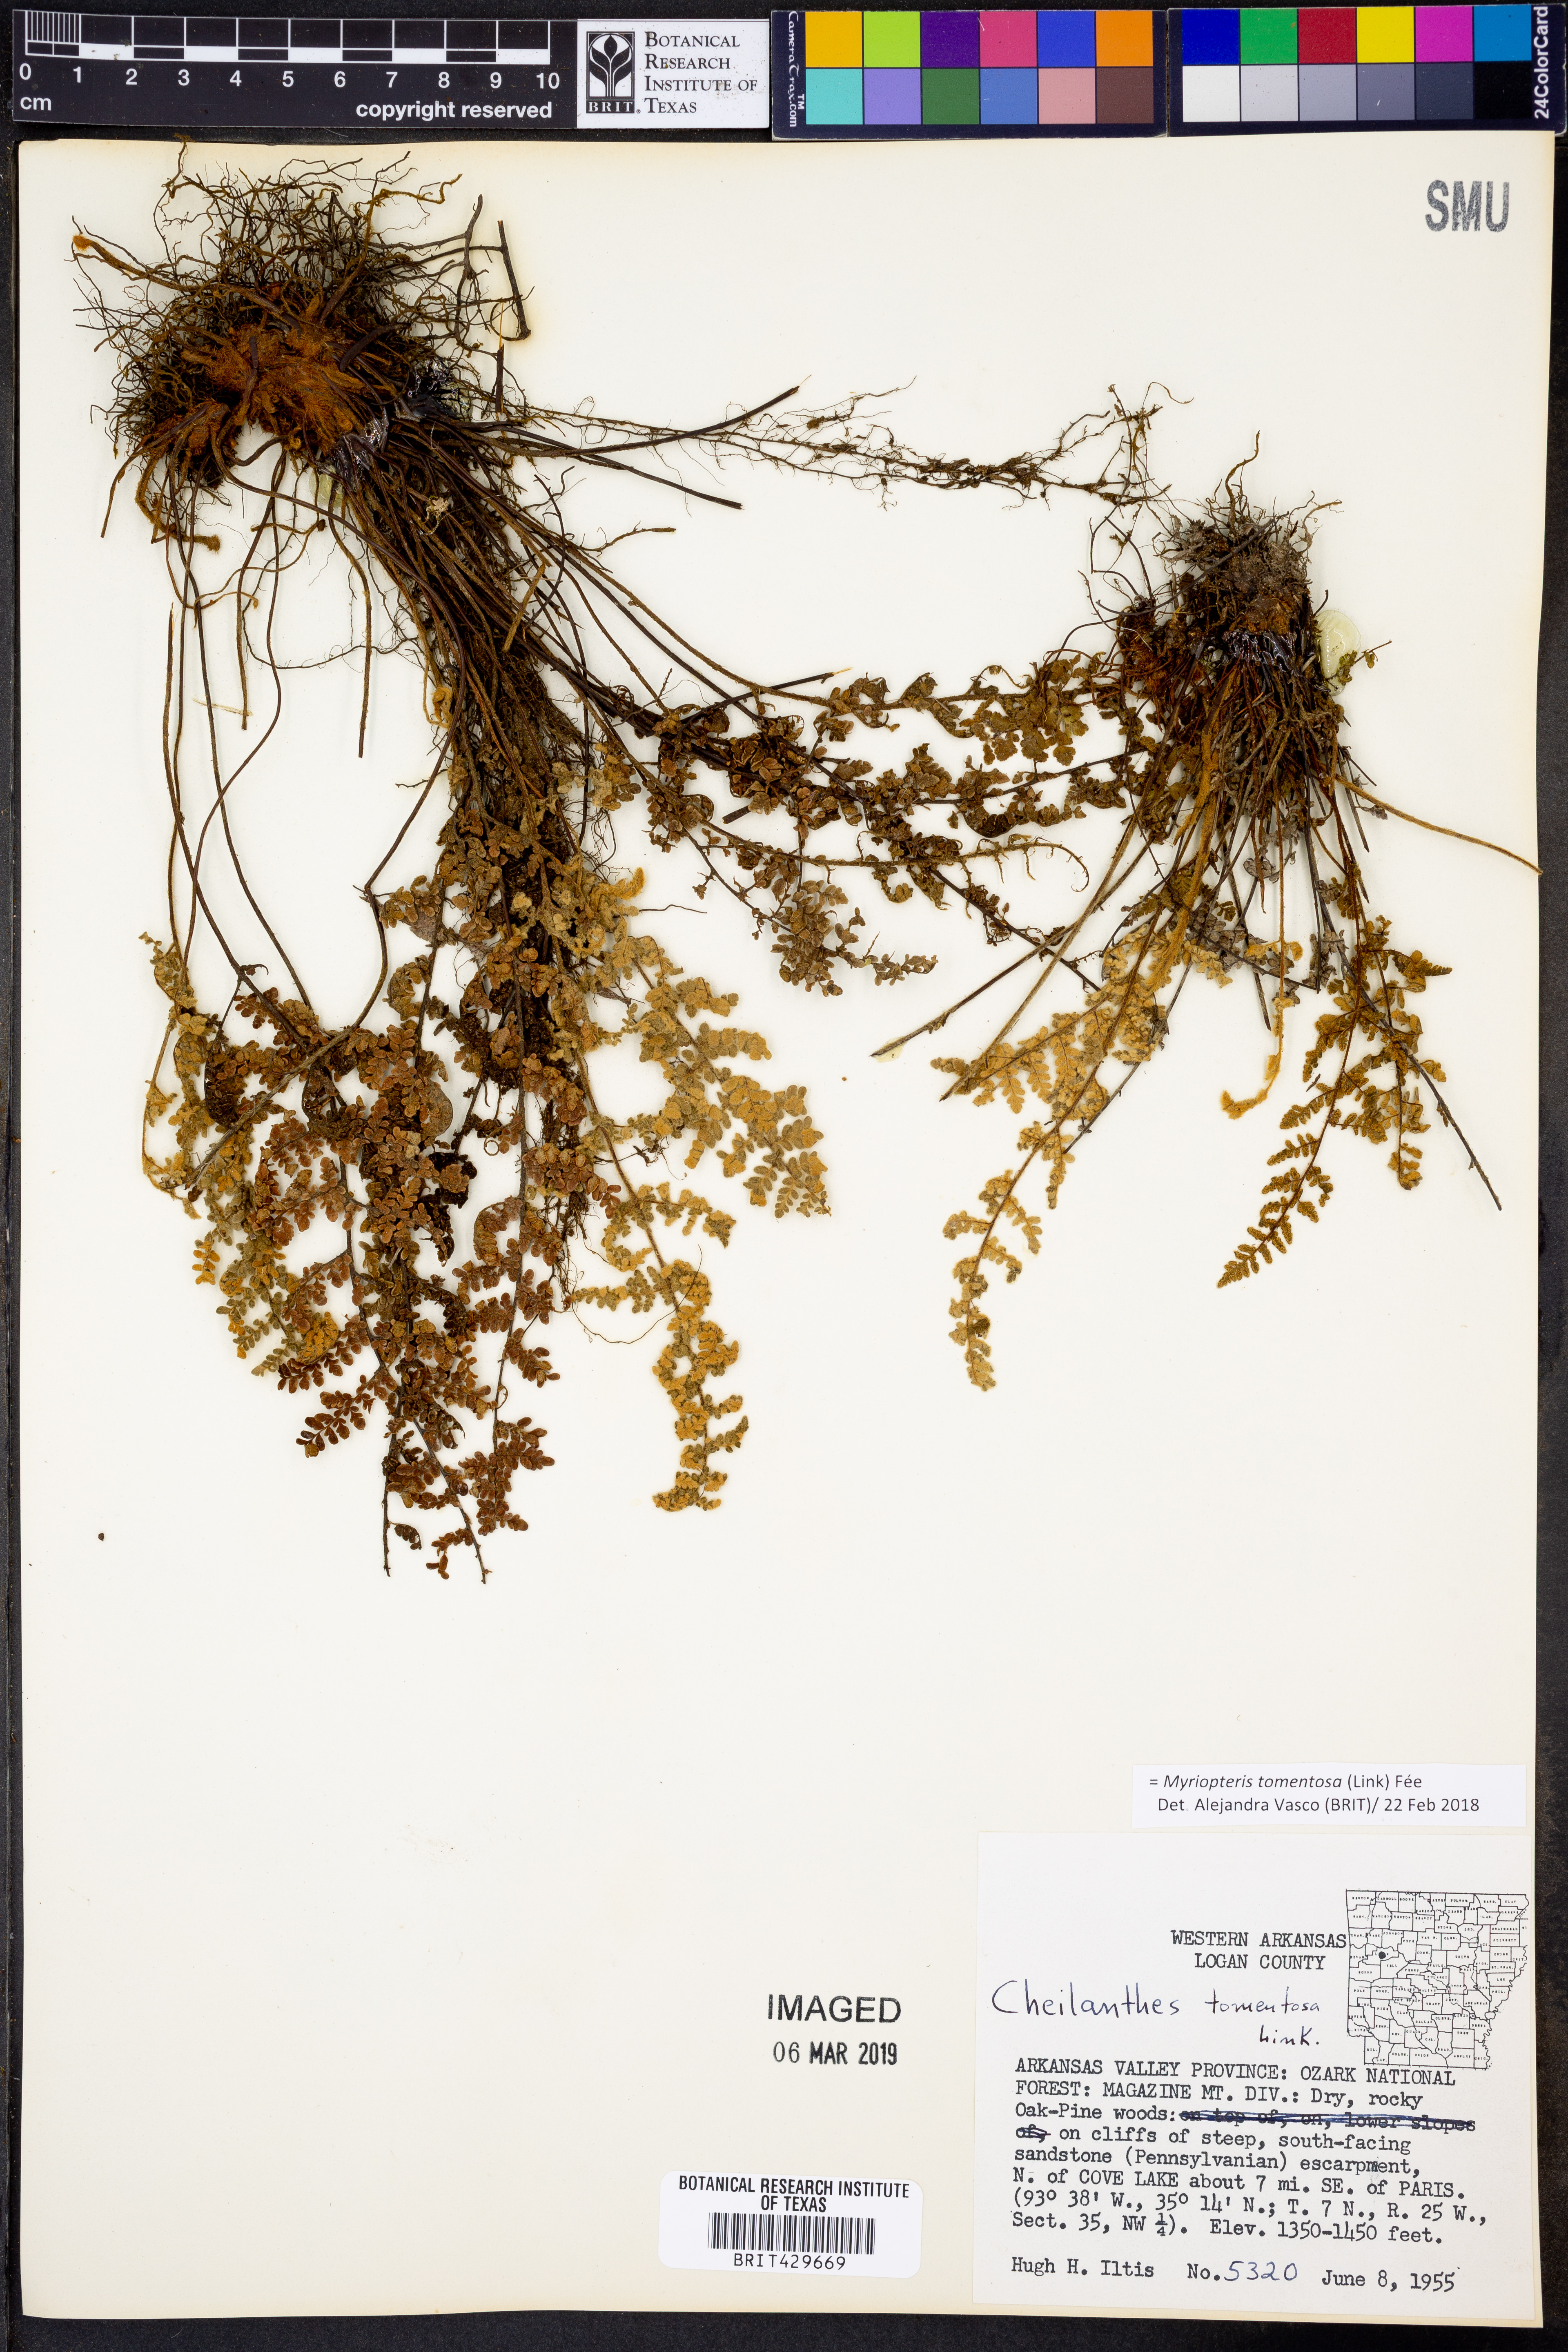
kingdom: Plantae
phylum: Tracheophyta
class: Magnoliopsida
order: Gentianales
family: Apocynaceae
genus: Asclepias
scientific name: Asclepias tuberosa
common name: Butterfly milkweed
